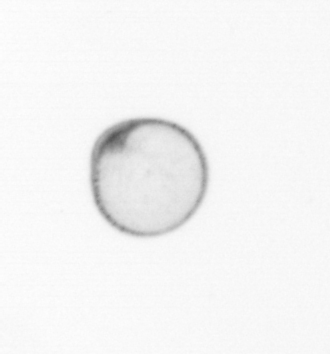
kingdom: Chromista
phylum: Myzozoa
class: Dinophyceae
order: Noctilucales
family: Noctilucaceae
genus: Noctiluca
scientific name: Noctiluca scintillans
